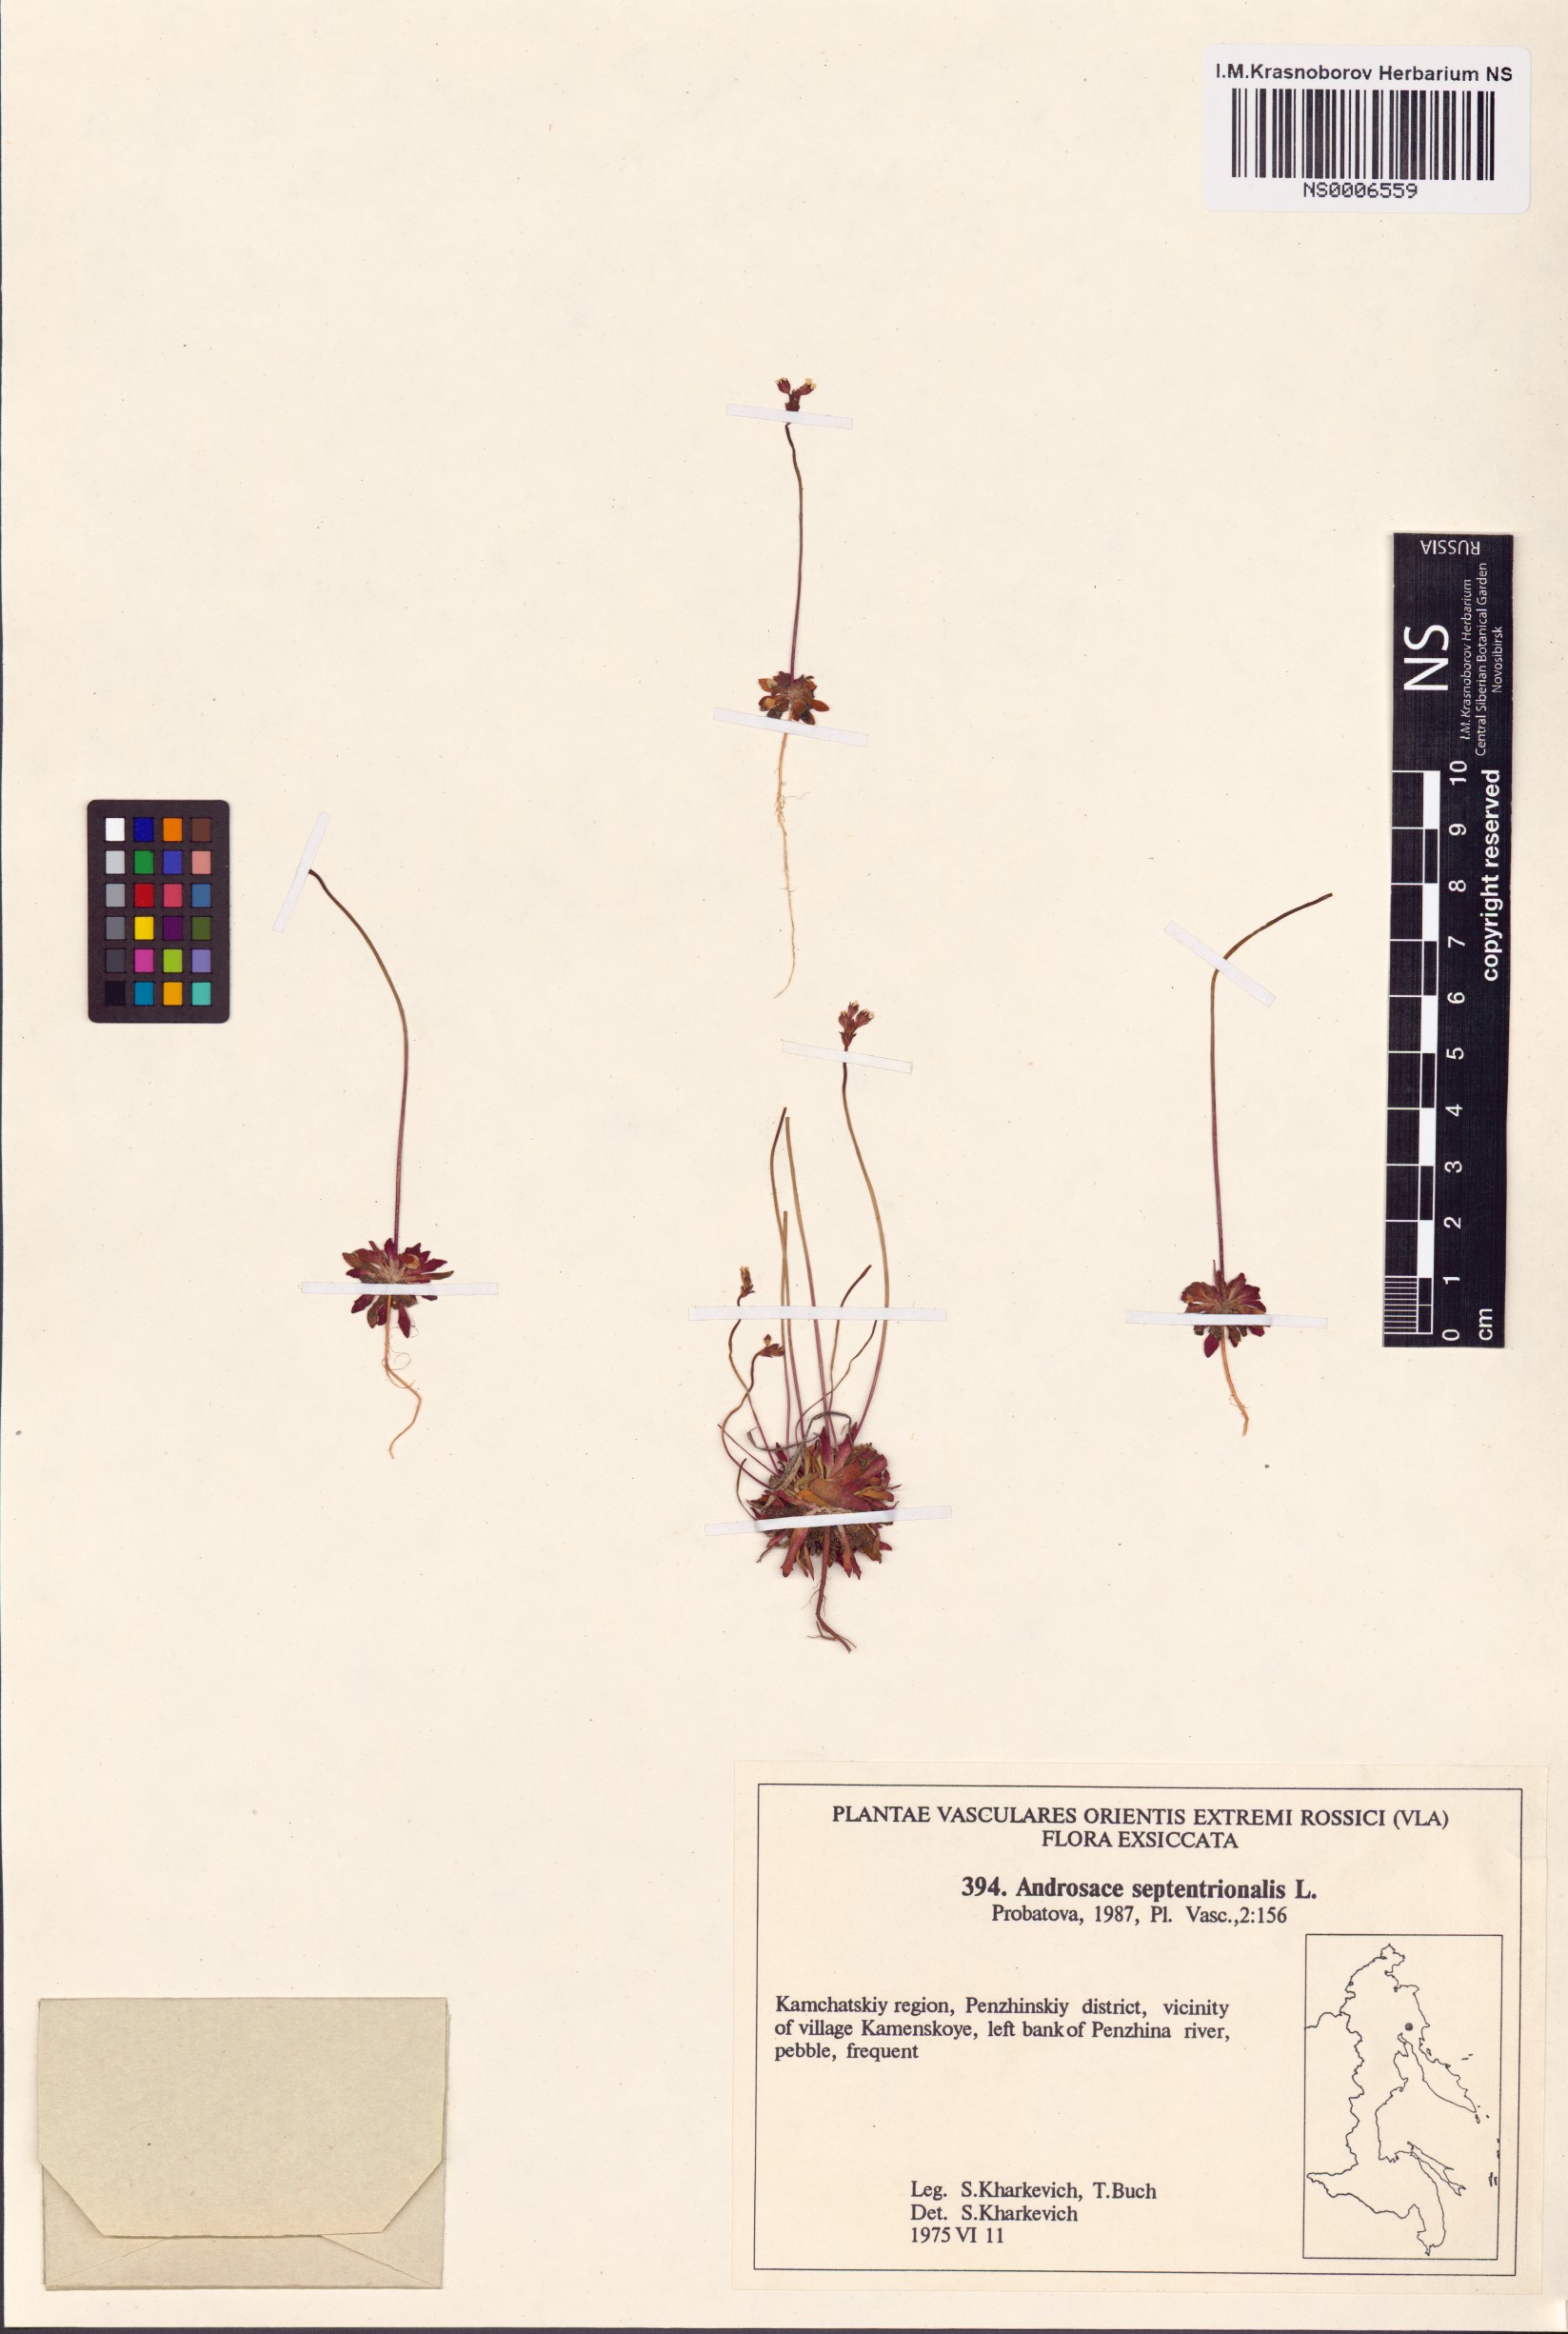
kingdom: Plantae
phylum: Tracheophyta
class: Magnoliopsida
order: Ericales
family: Primulaceae
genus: Androsace
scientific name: Androsace septentrionalis
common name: Hairy northern fairy-candelabra
